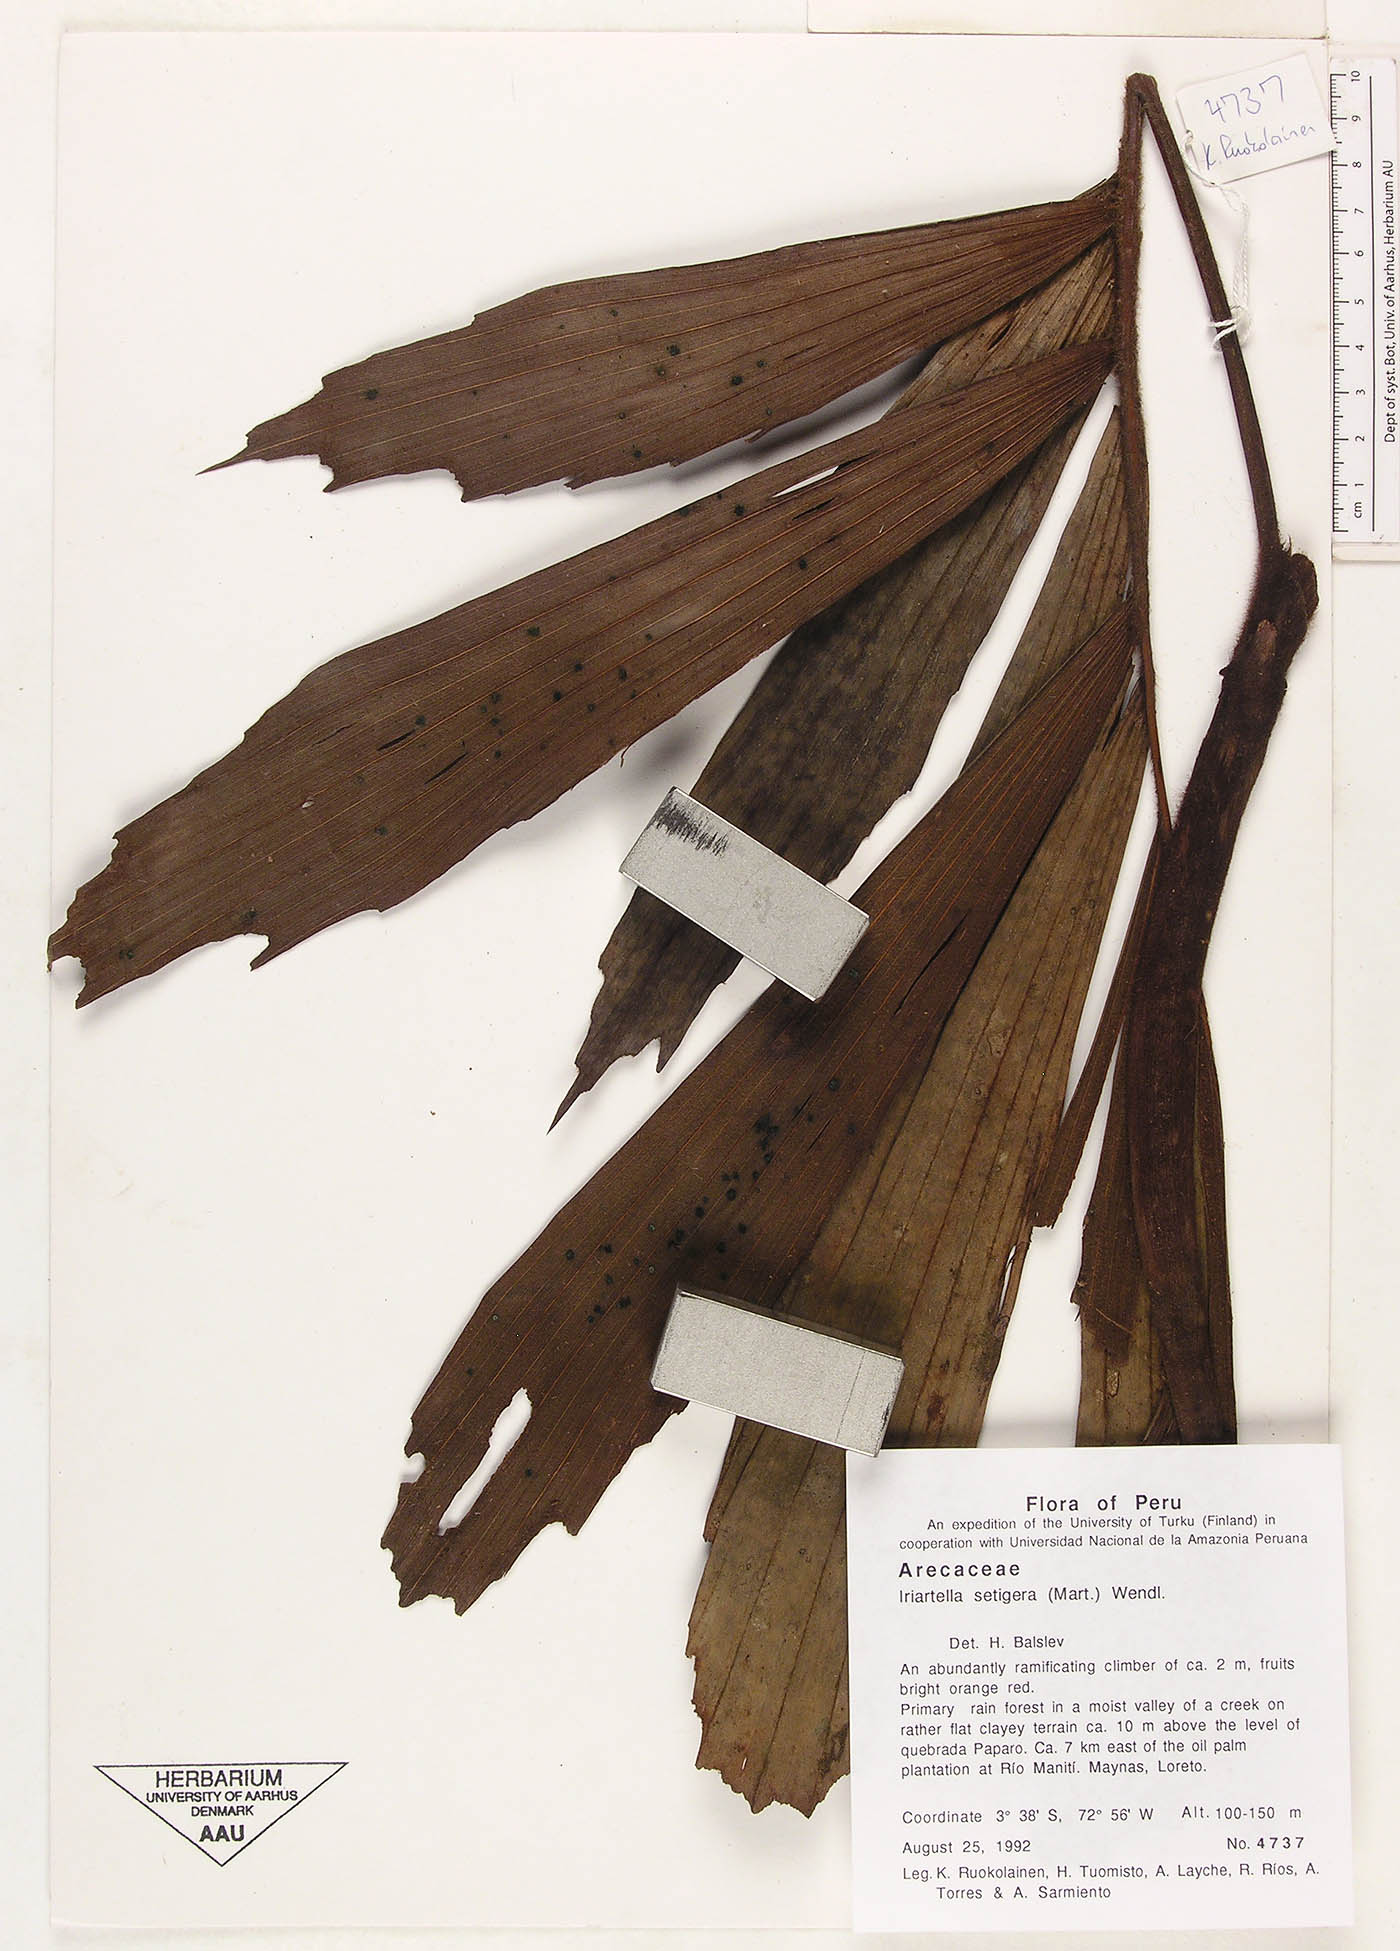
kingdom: Plantae
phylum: Tracheophyta
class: Liliopsida
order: Arecales
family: Arecaceae
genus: Iriartella
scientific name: Iriartella setigera
